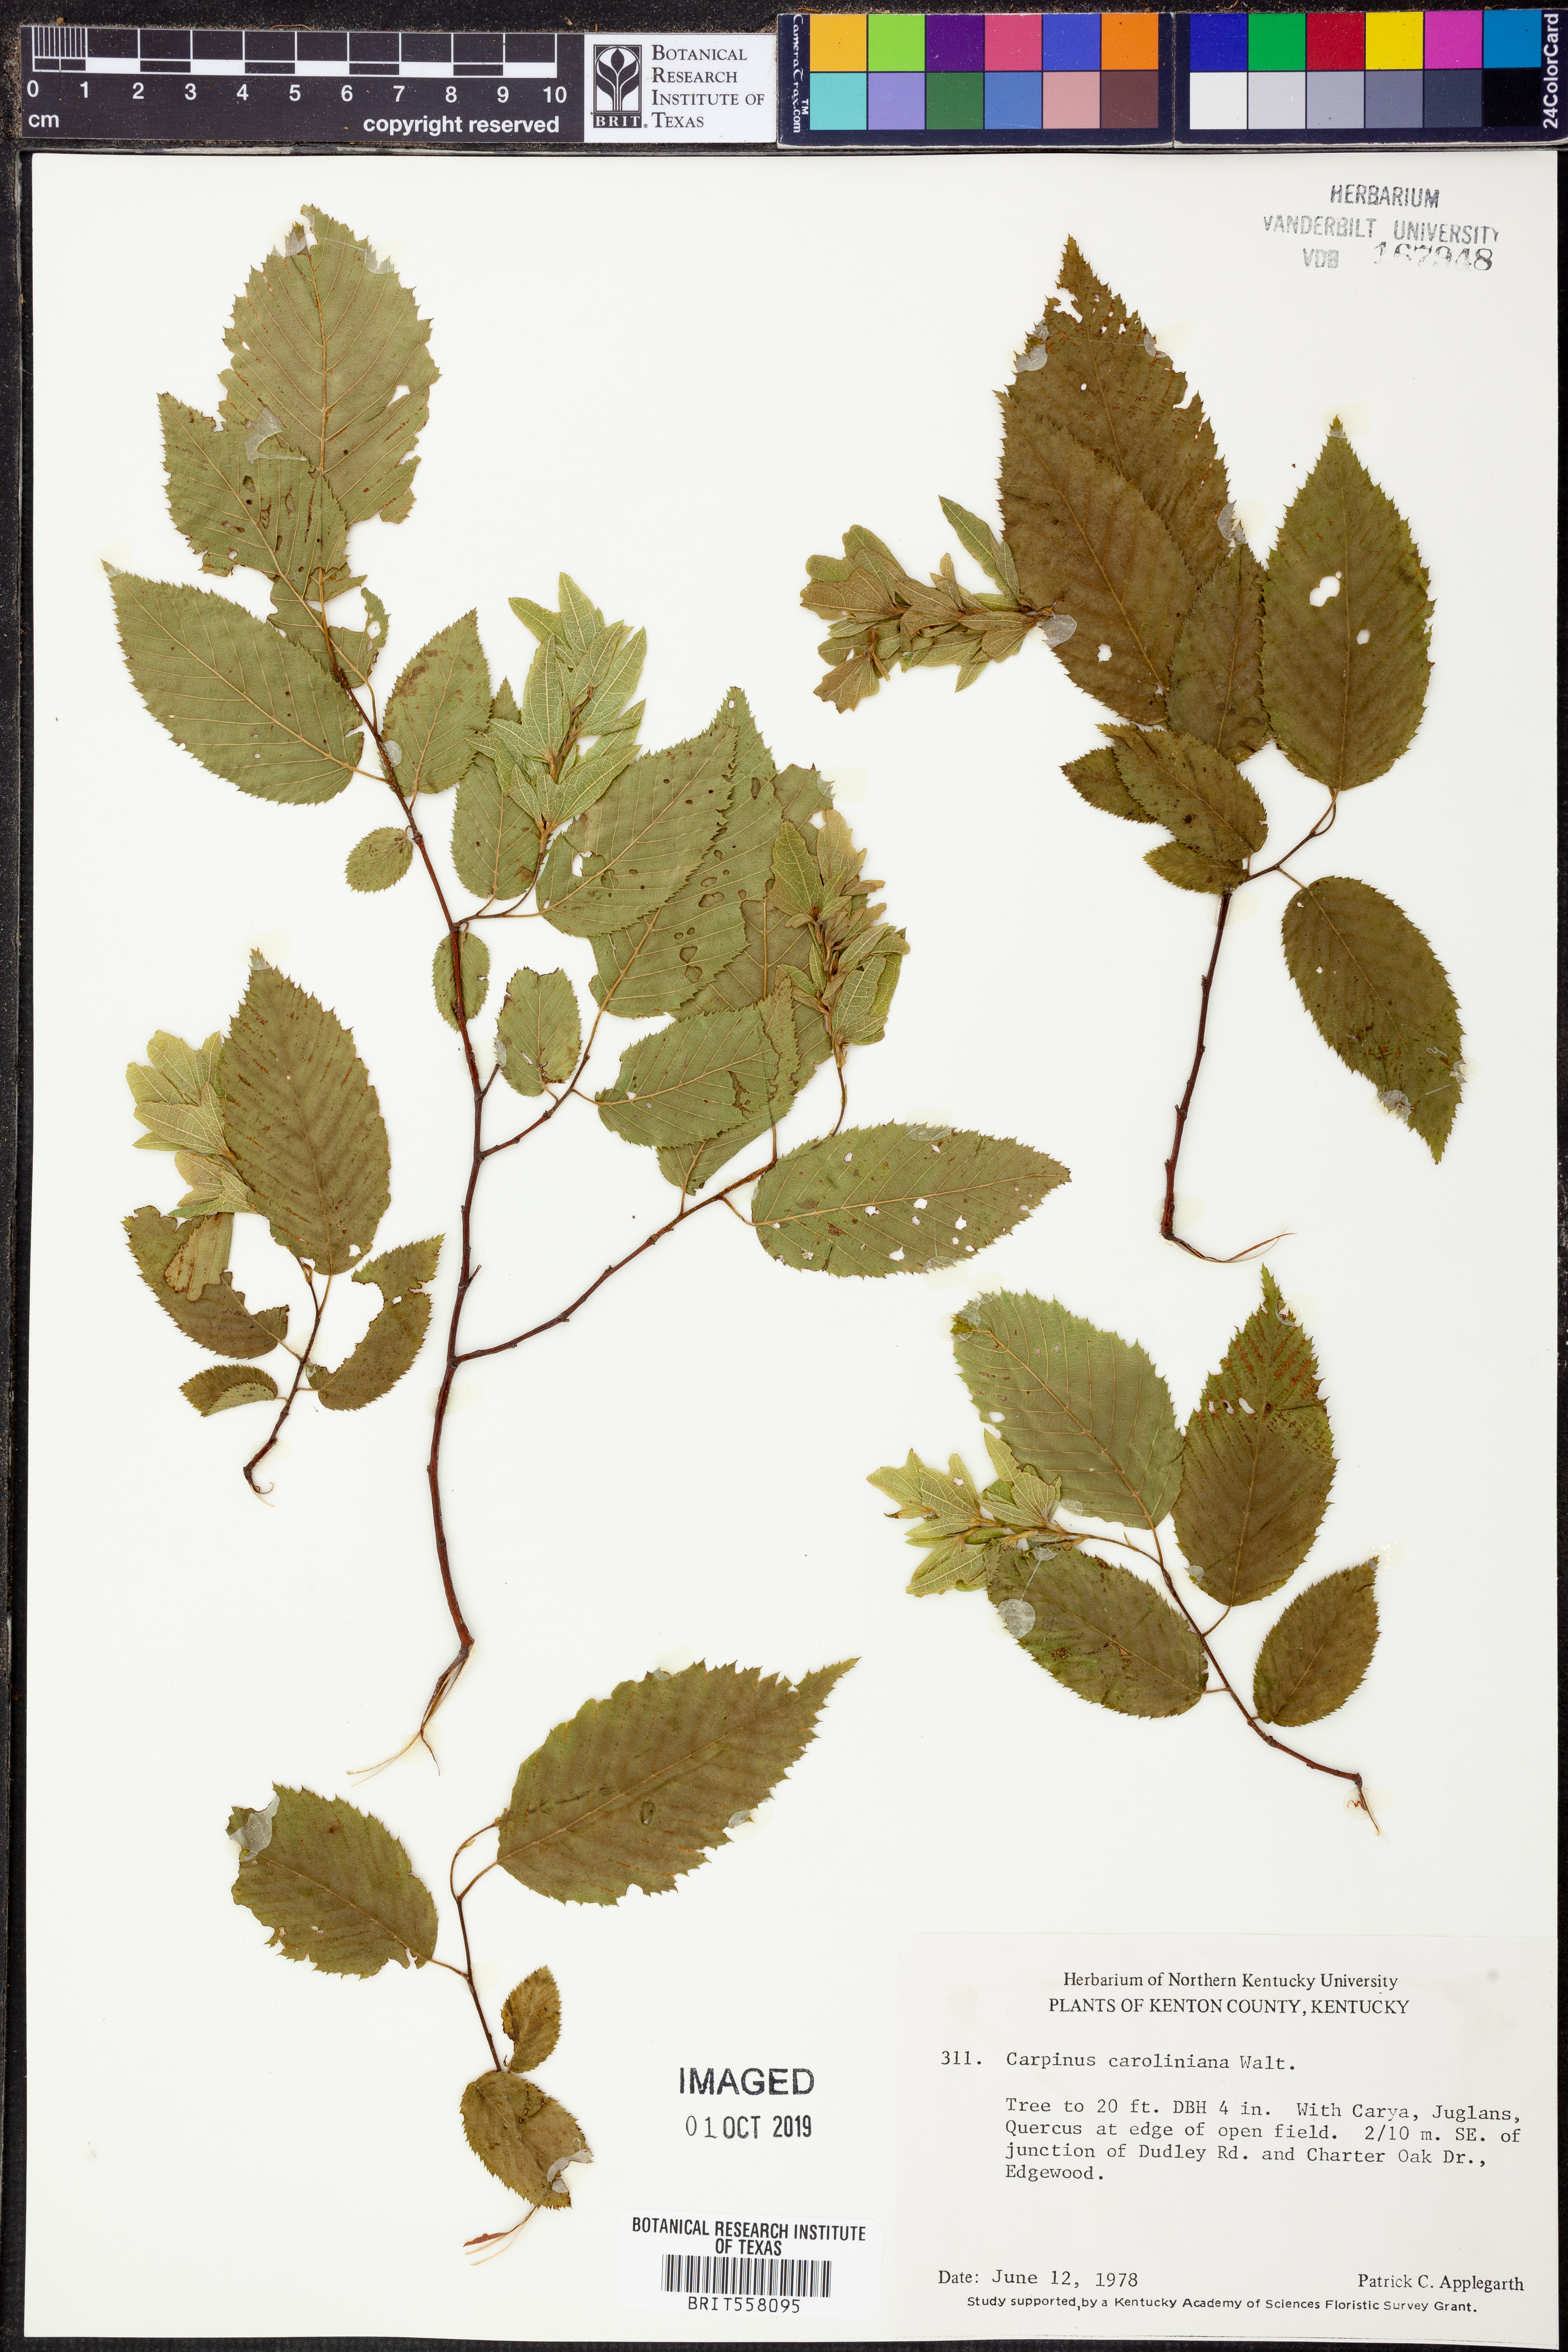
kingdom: Plantae
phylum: Tracheophyta
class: Magnoliopsida
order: Fagales
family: Betulaceae
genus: Carpinus
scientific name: Carpinus caroliniana
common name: American hornbeam
